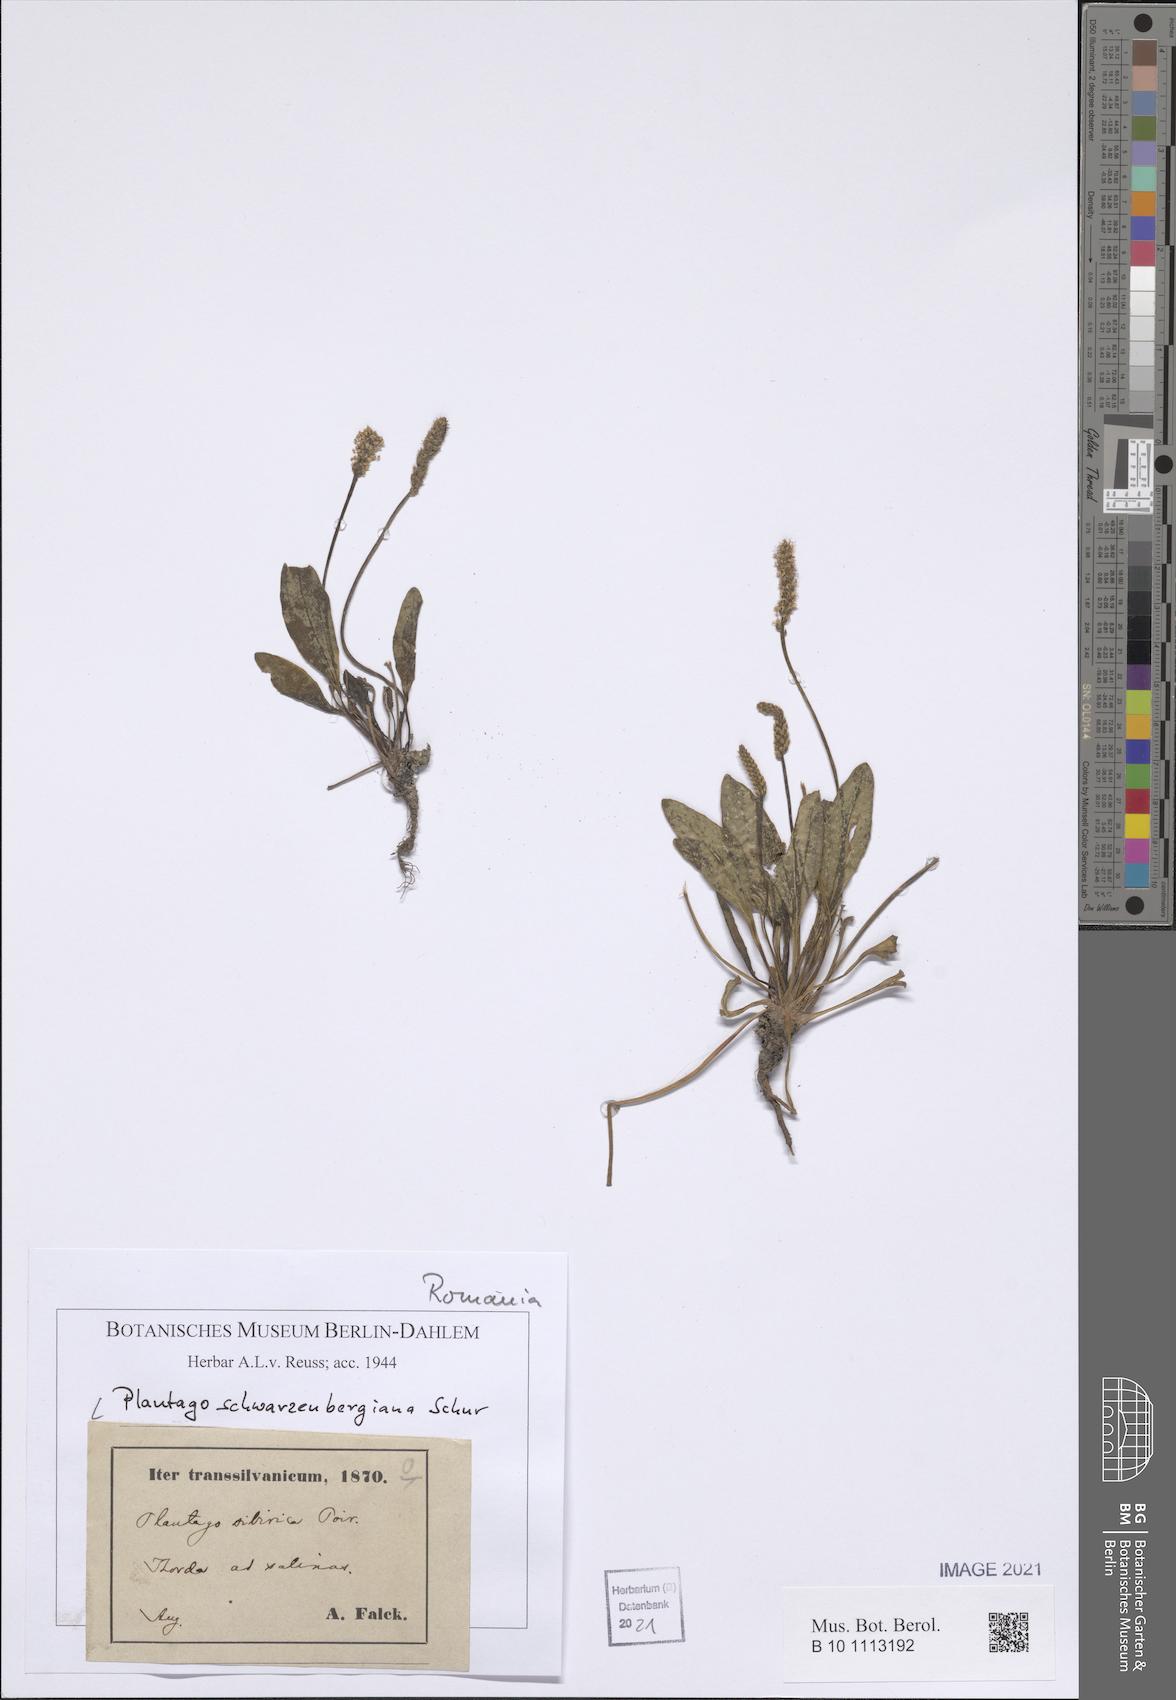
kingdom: Plantae
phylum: Tracheophyta
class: Magnoliopsida
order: Lamiales
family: Plantaginaceae
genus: Plantago
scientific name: Plantago schwarzenbergiana
